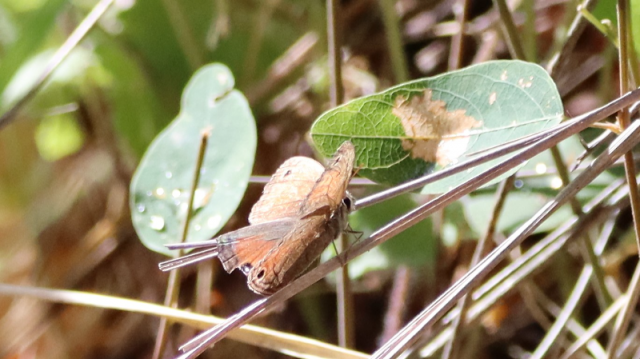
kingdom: Animalia
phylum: Arthropoda
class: Insecta
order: Lepidoptera
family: Nymphalidae
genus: Euptychia
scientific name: Euptychia rubricata
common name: Red Satyr
